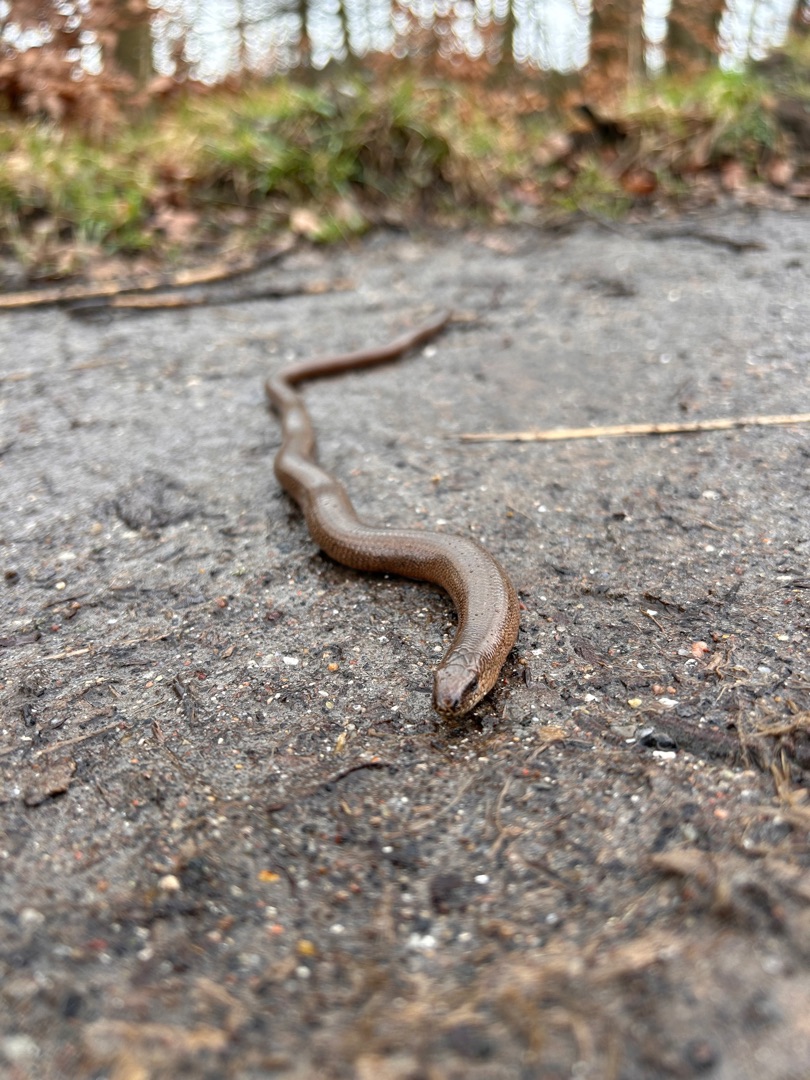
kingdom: Animalia
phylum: Chordata
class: Squamata
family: Anguidae
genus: Anguis
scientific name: Anguis fragilis
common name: Stålorm
